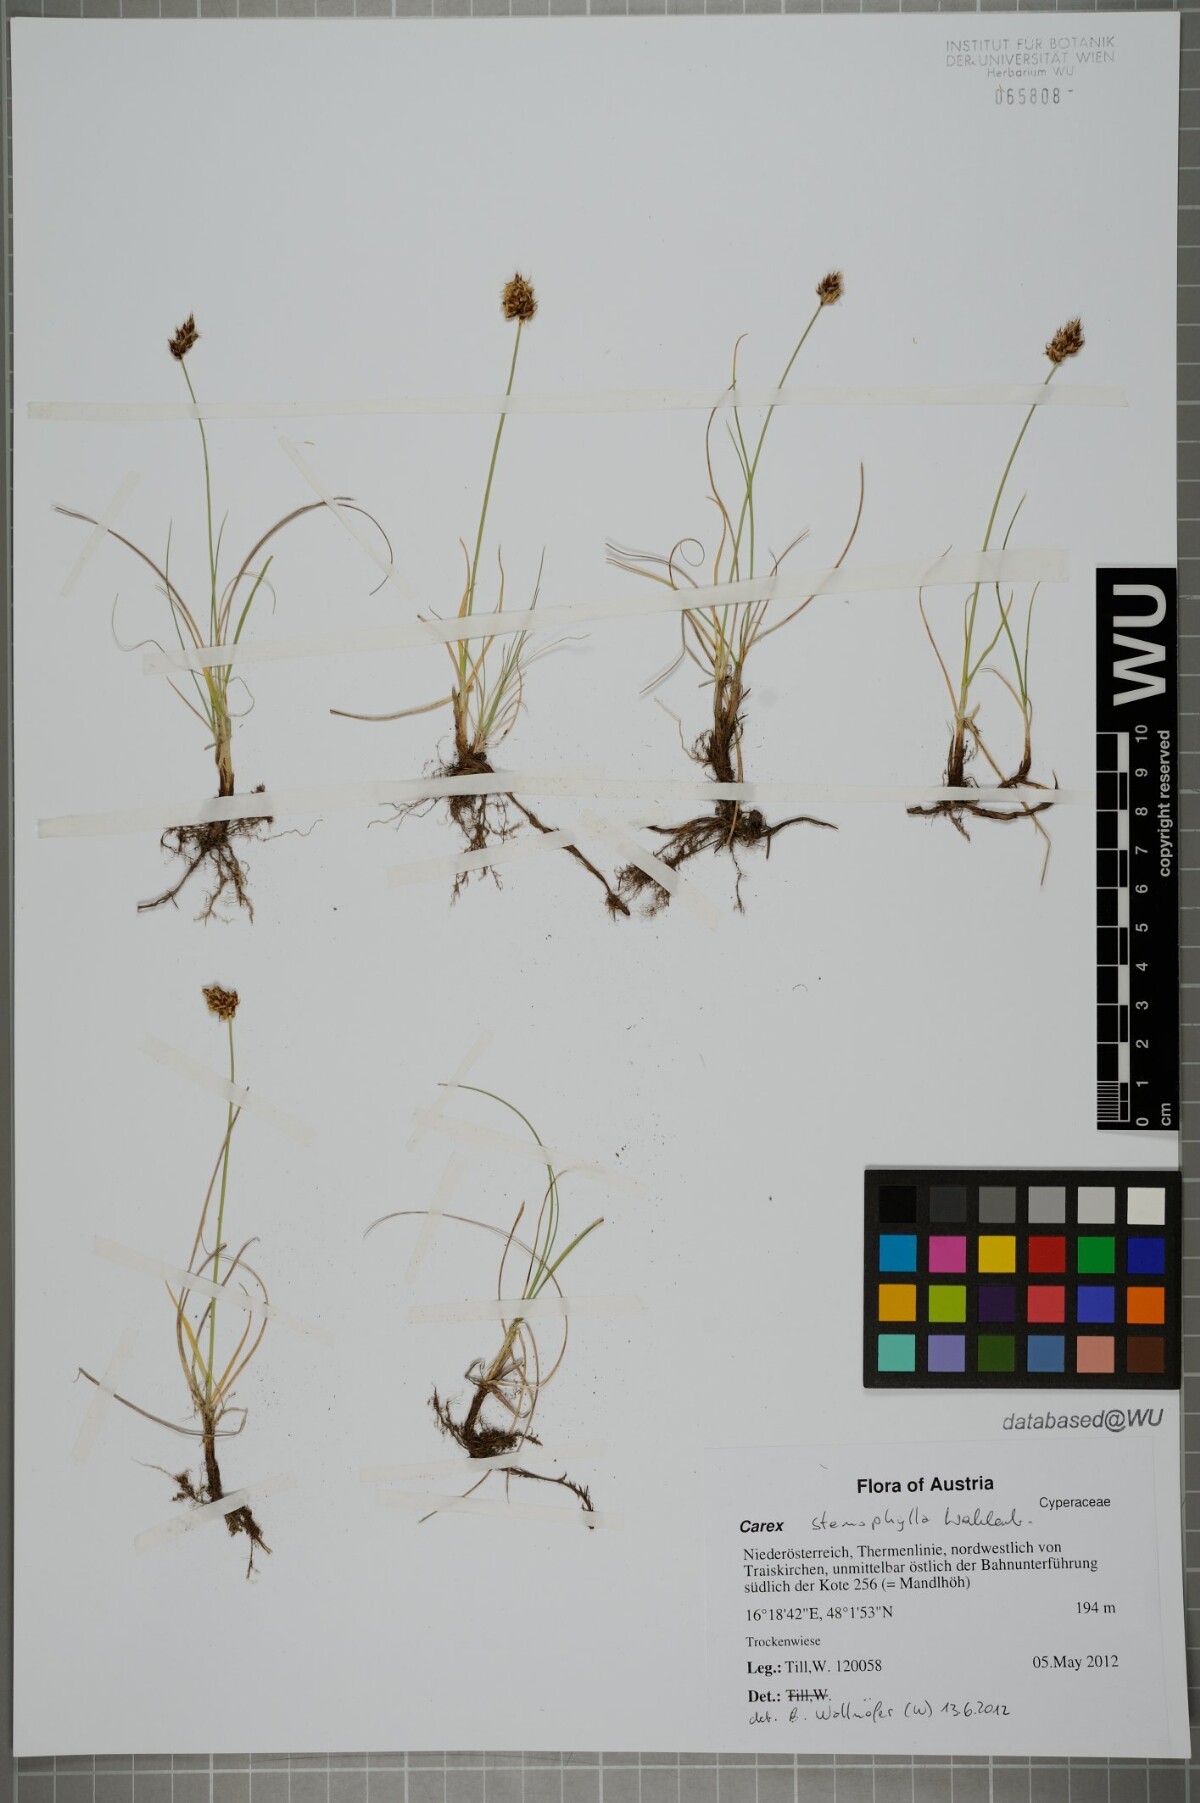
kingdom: Plantae
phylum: Tracheophyta
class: Liliopsida
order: Poales
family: Cyperaceae
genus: Carex
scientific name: Carex stenophylla
